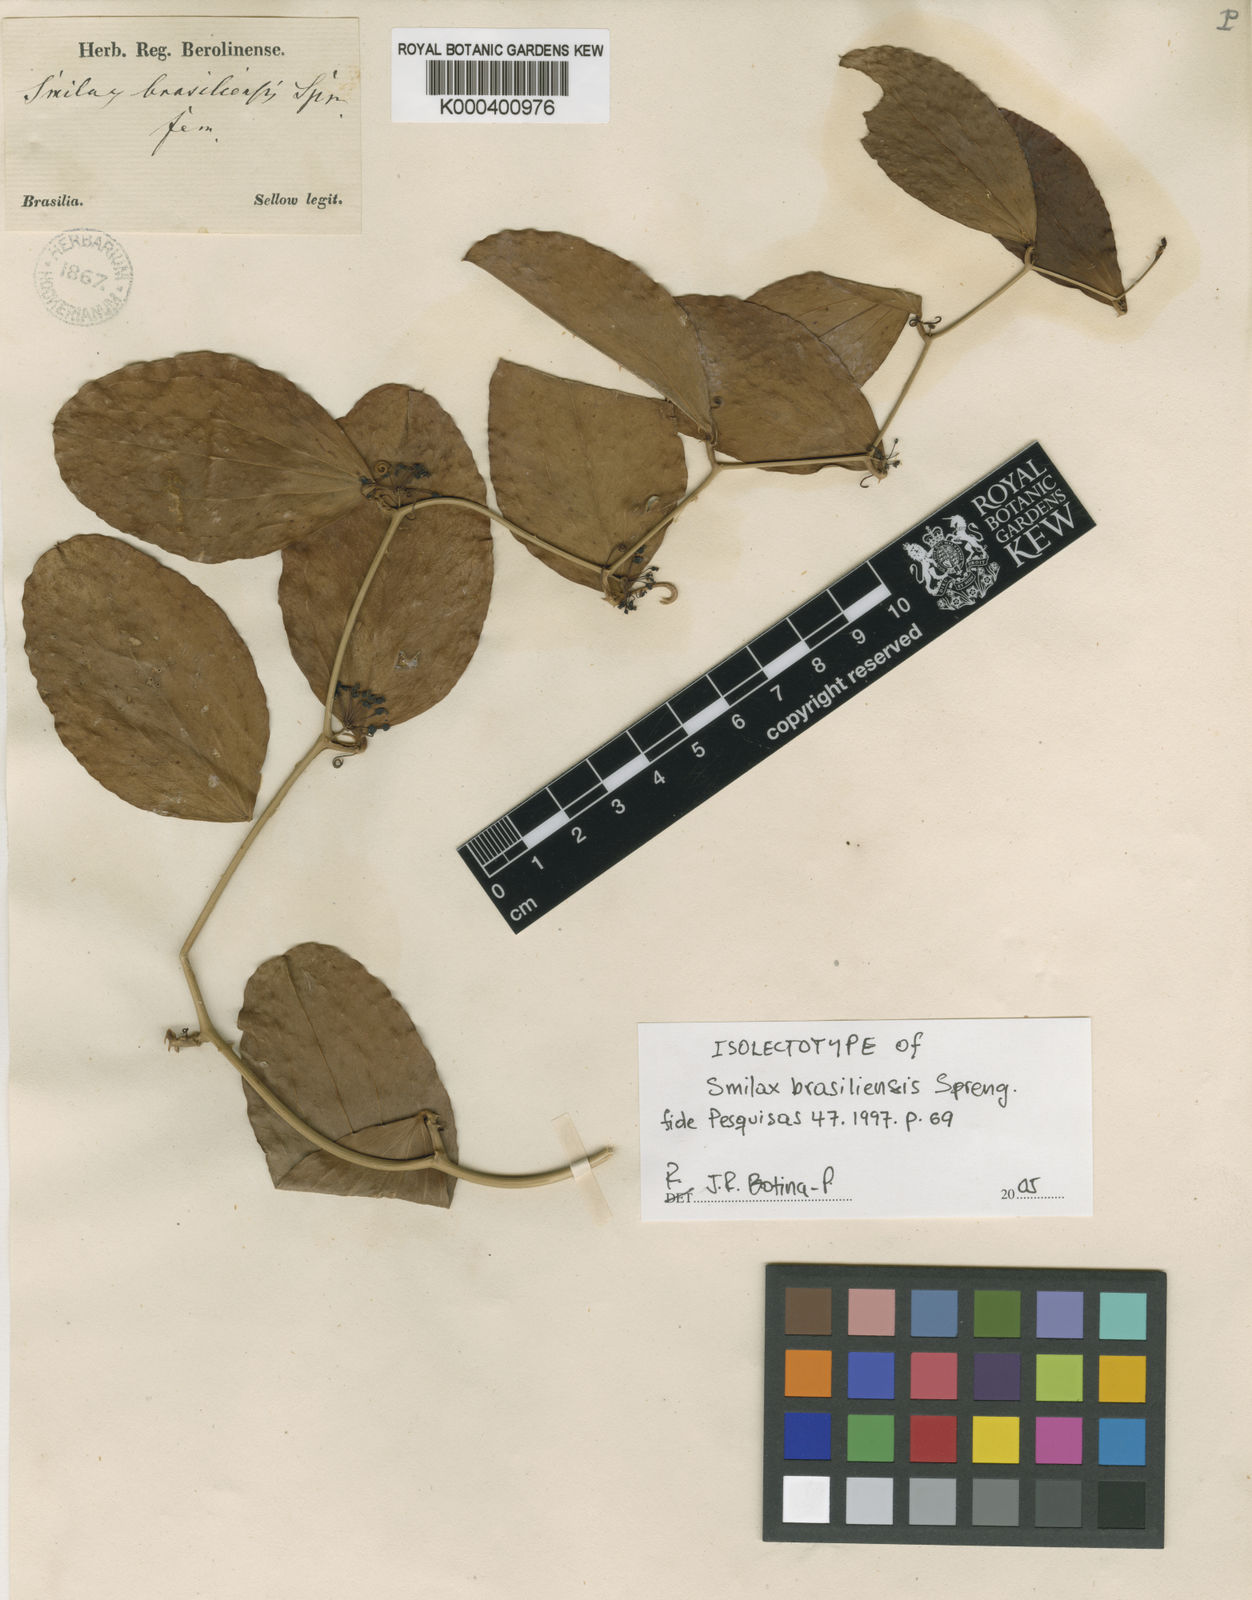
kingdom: Plantae
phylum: Tracheophyta
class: Liliopsida
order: Liliales
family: Smilacaceae
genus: Smilax
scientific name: Smilax brasiliensis
